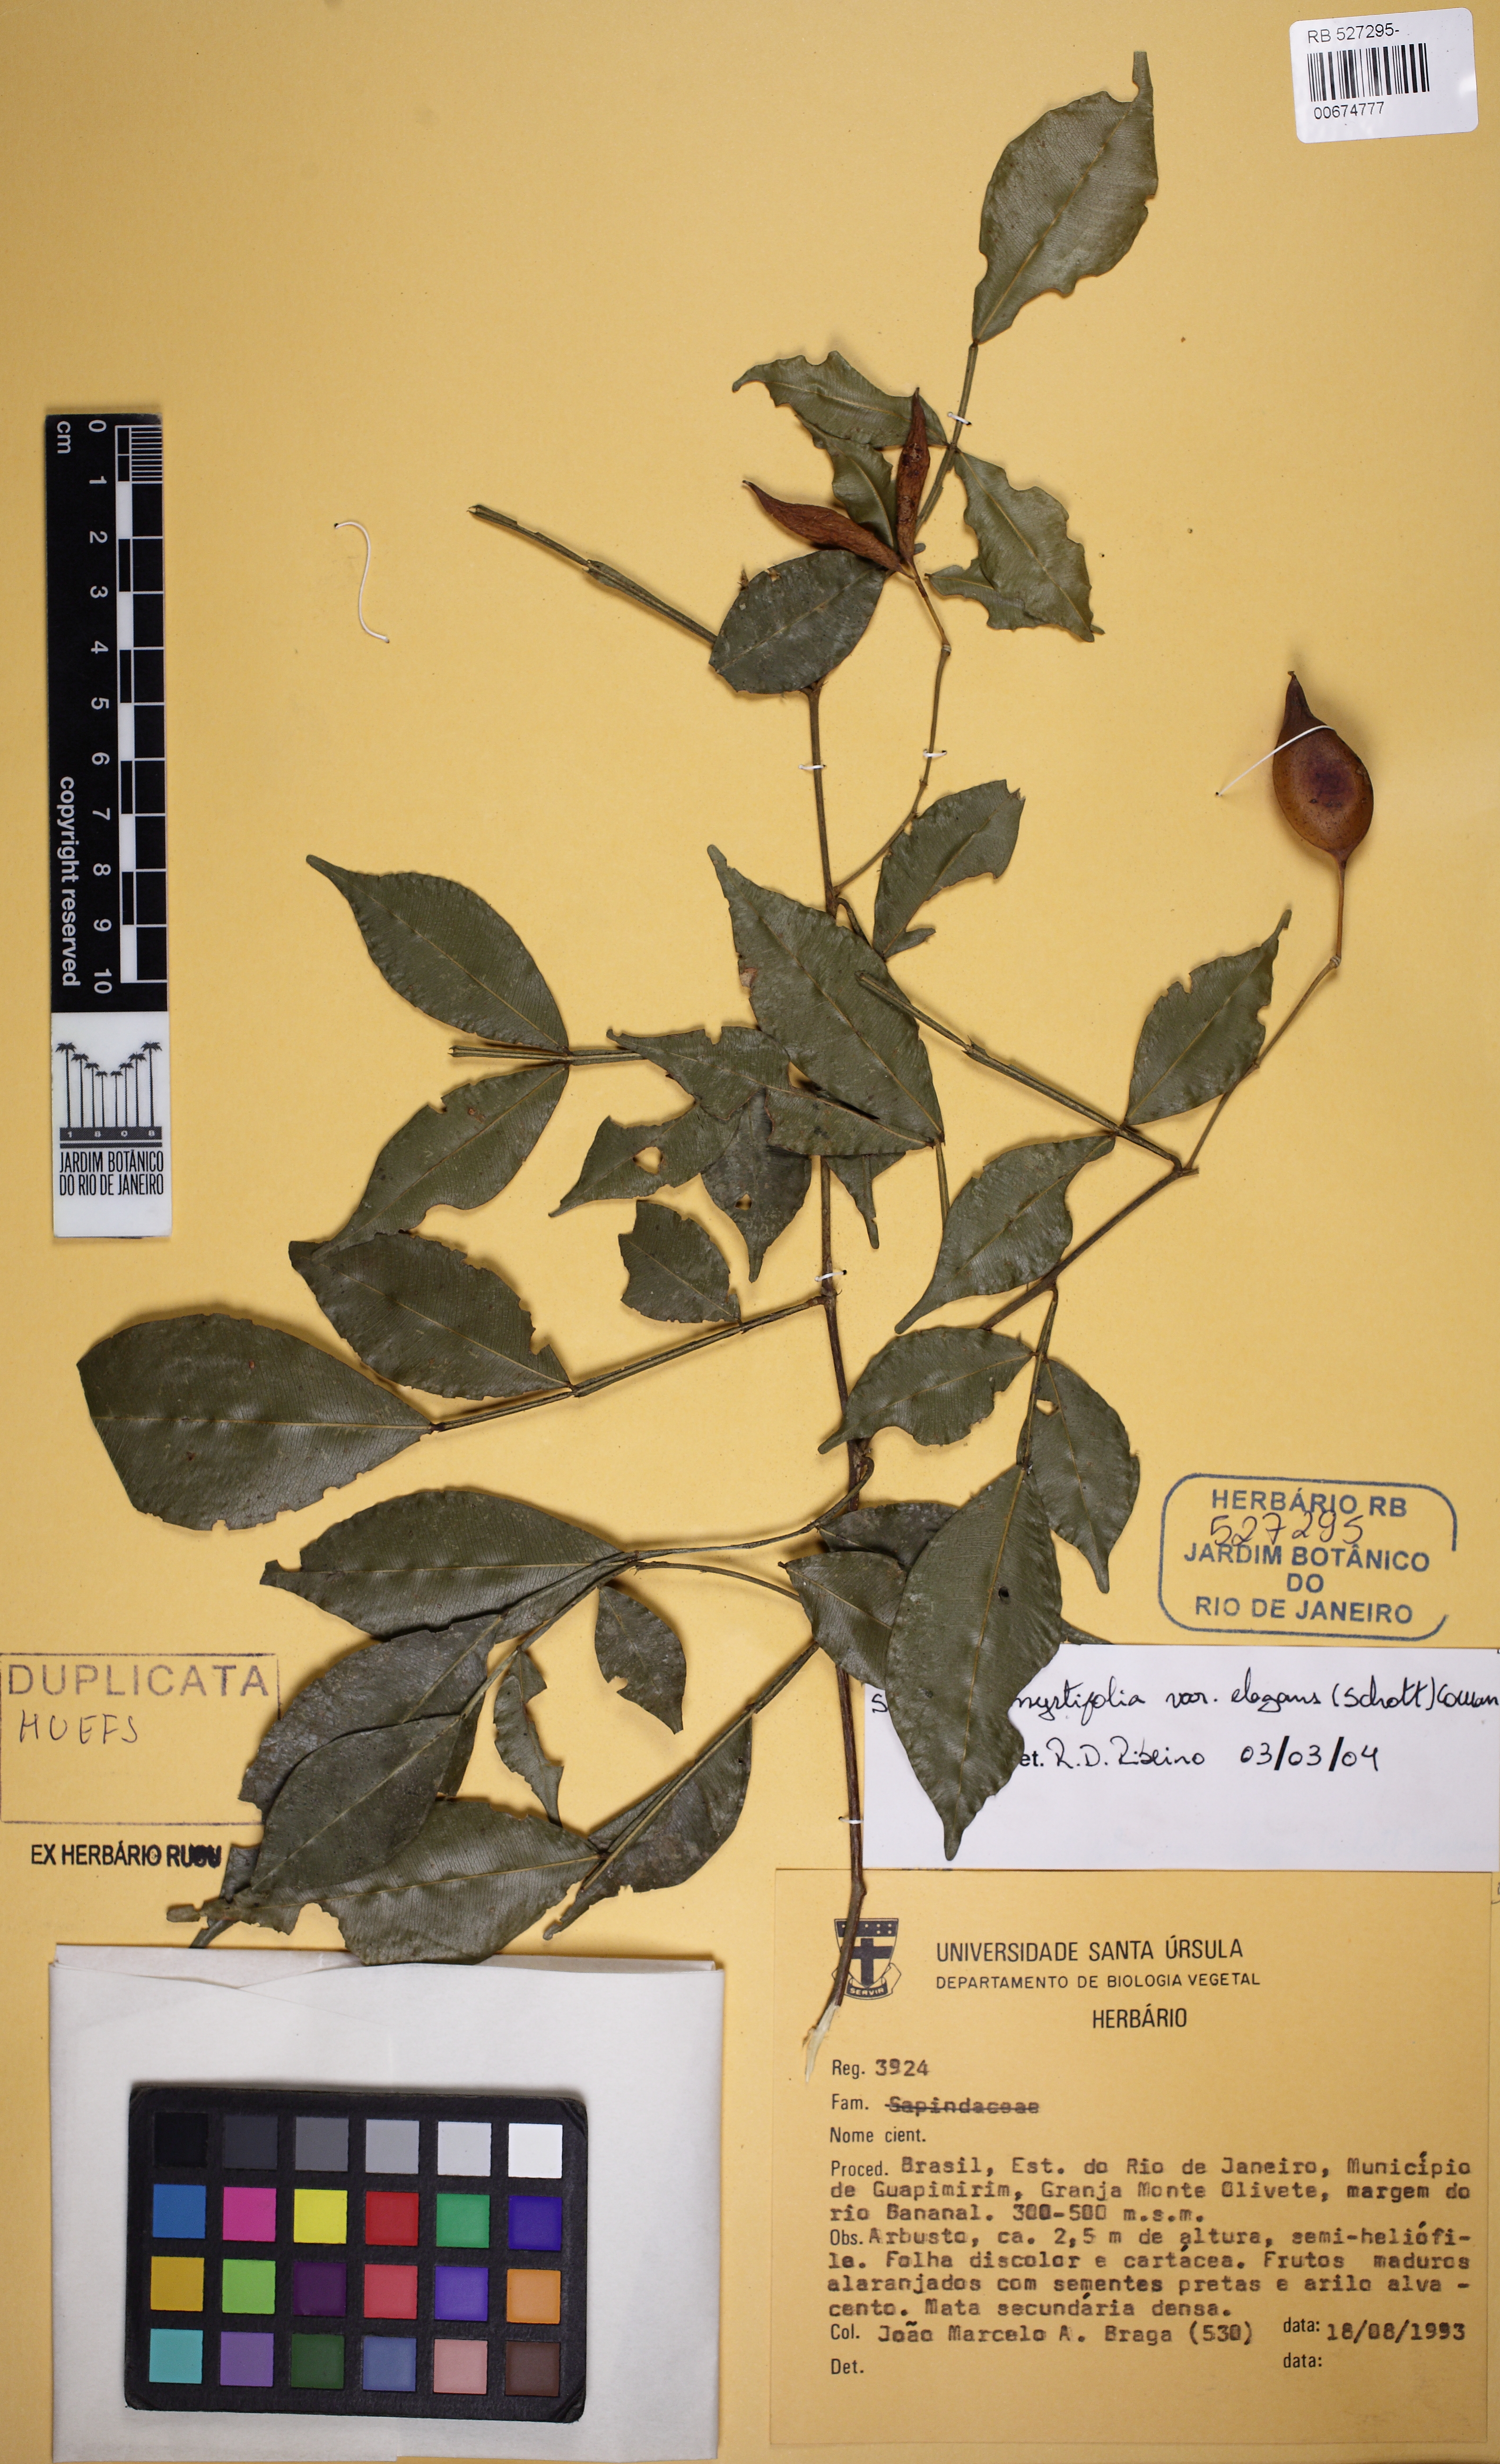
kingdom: Plantae
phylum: Tracheophyta
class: Magnoliopsida
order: Fabales
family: Fabaceae
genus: Swartzia
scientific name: Swartzia myrtifolia
